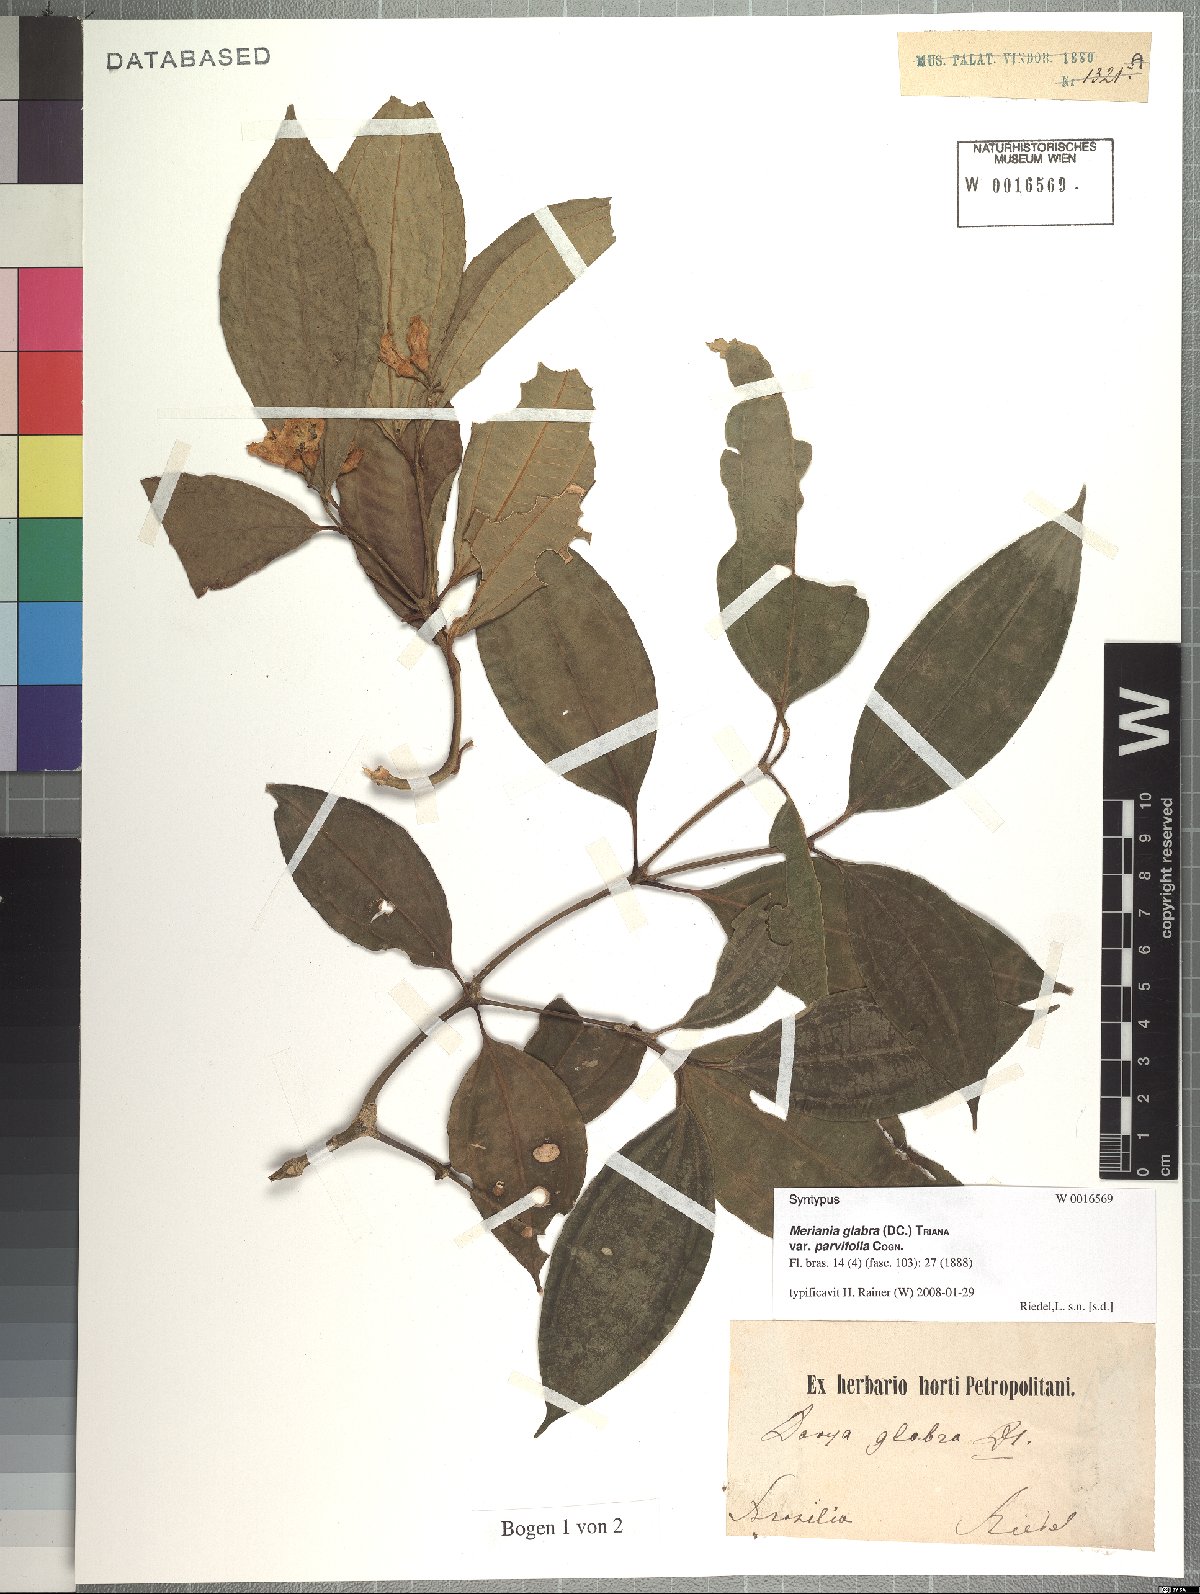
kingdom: Plantae
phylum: Tracheophyta
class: Magnoliopsida
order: Myrtales
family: Melastomataceae
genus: Meriania
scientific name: Meriania glabra
